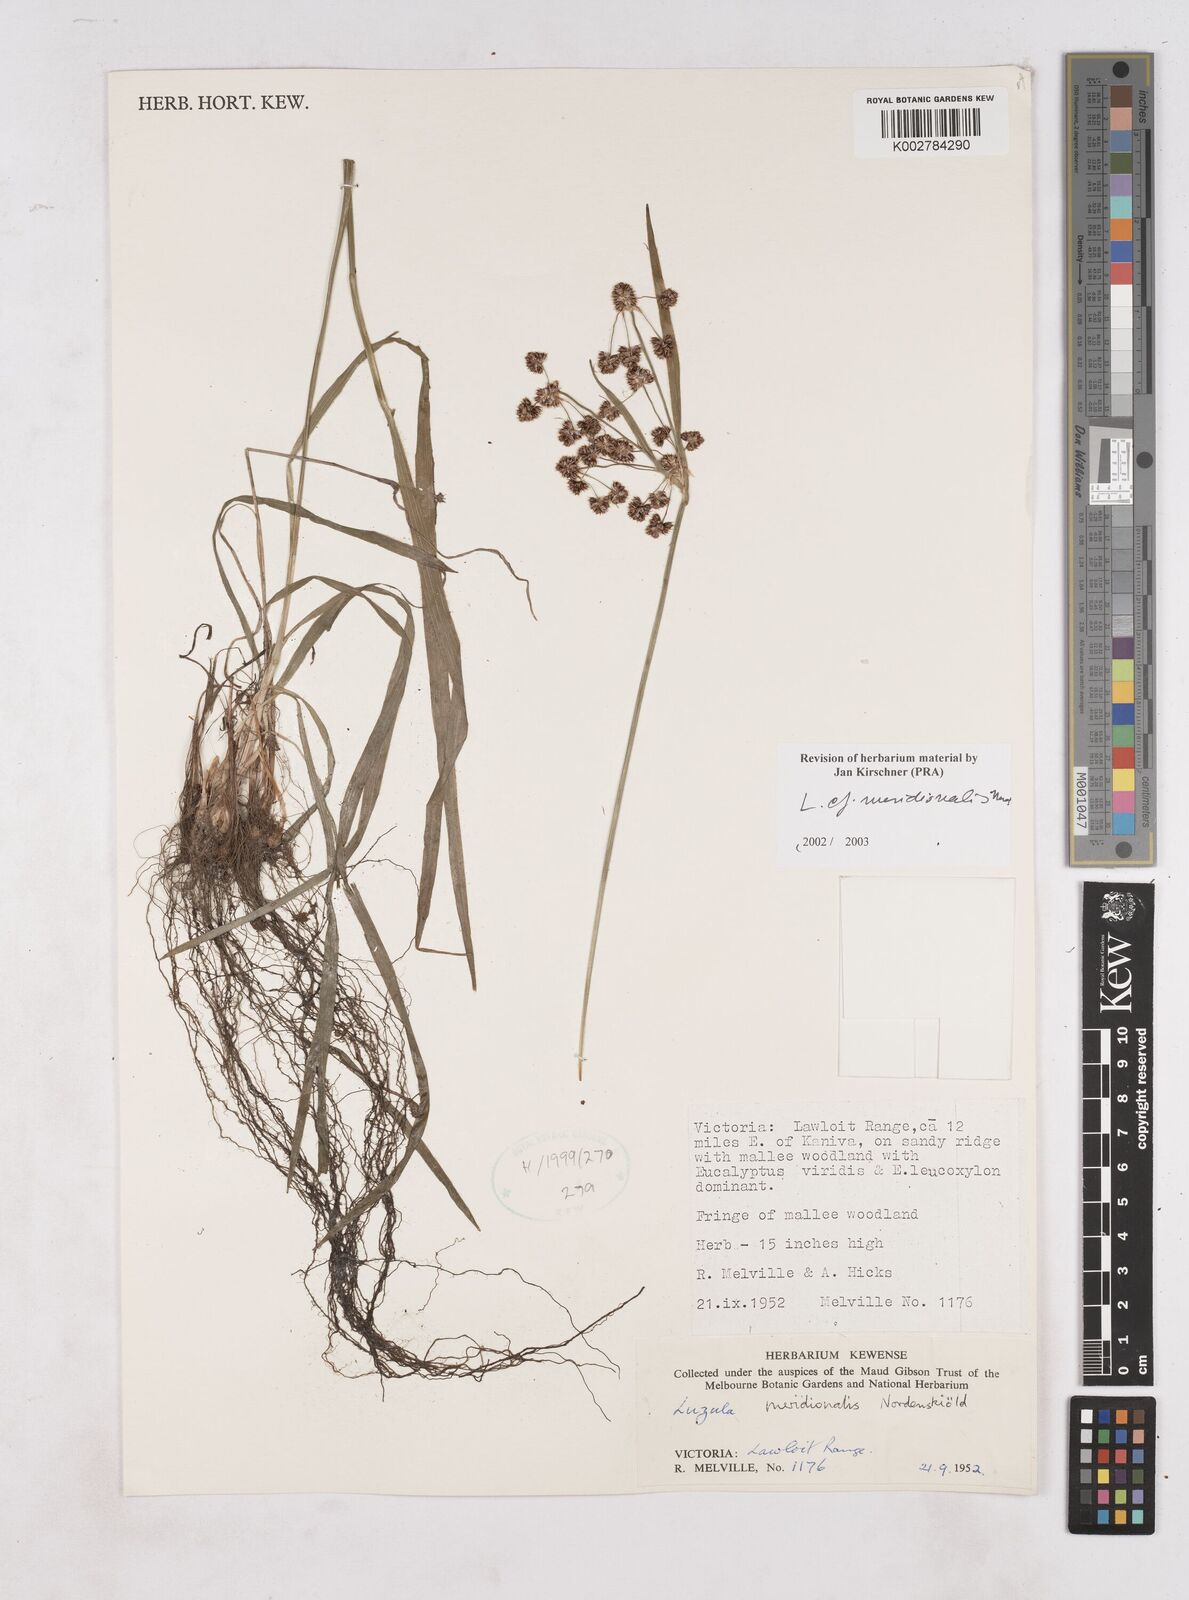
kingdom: Plantae
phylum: Tracheophyta
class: Liliopsida
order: Poales
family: Juncaceae
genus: Luzula
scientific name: Luzula meridionalis
